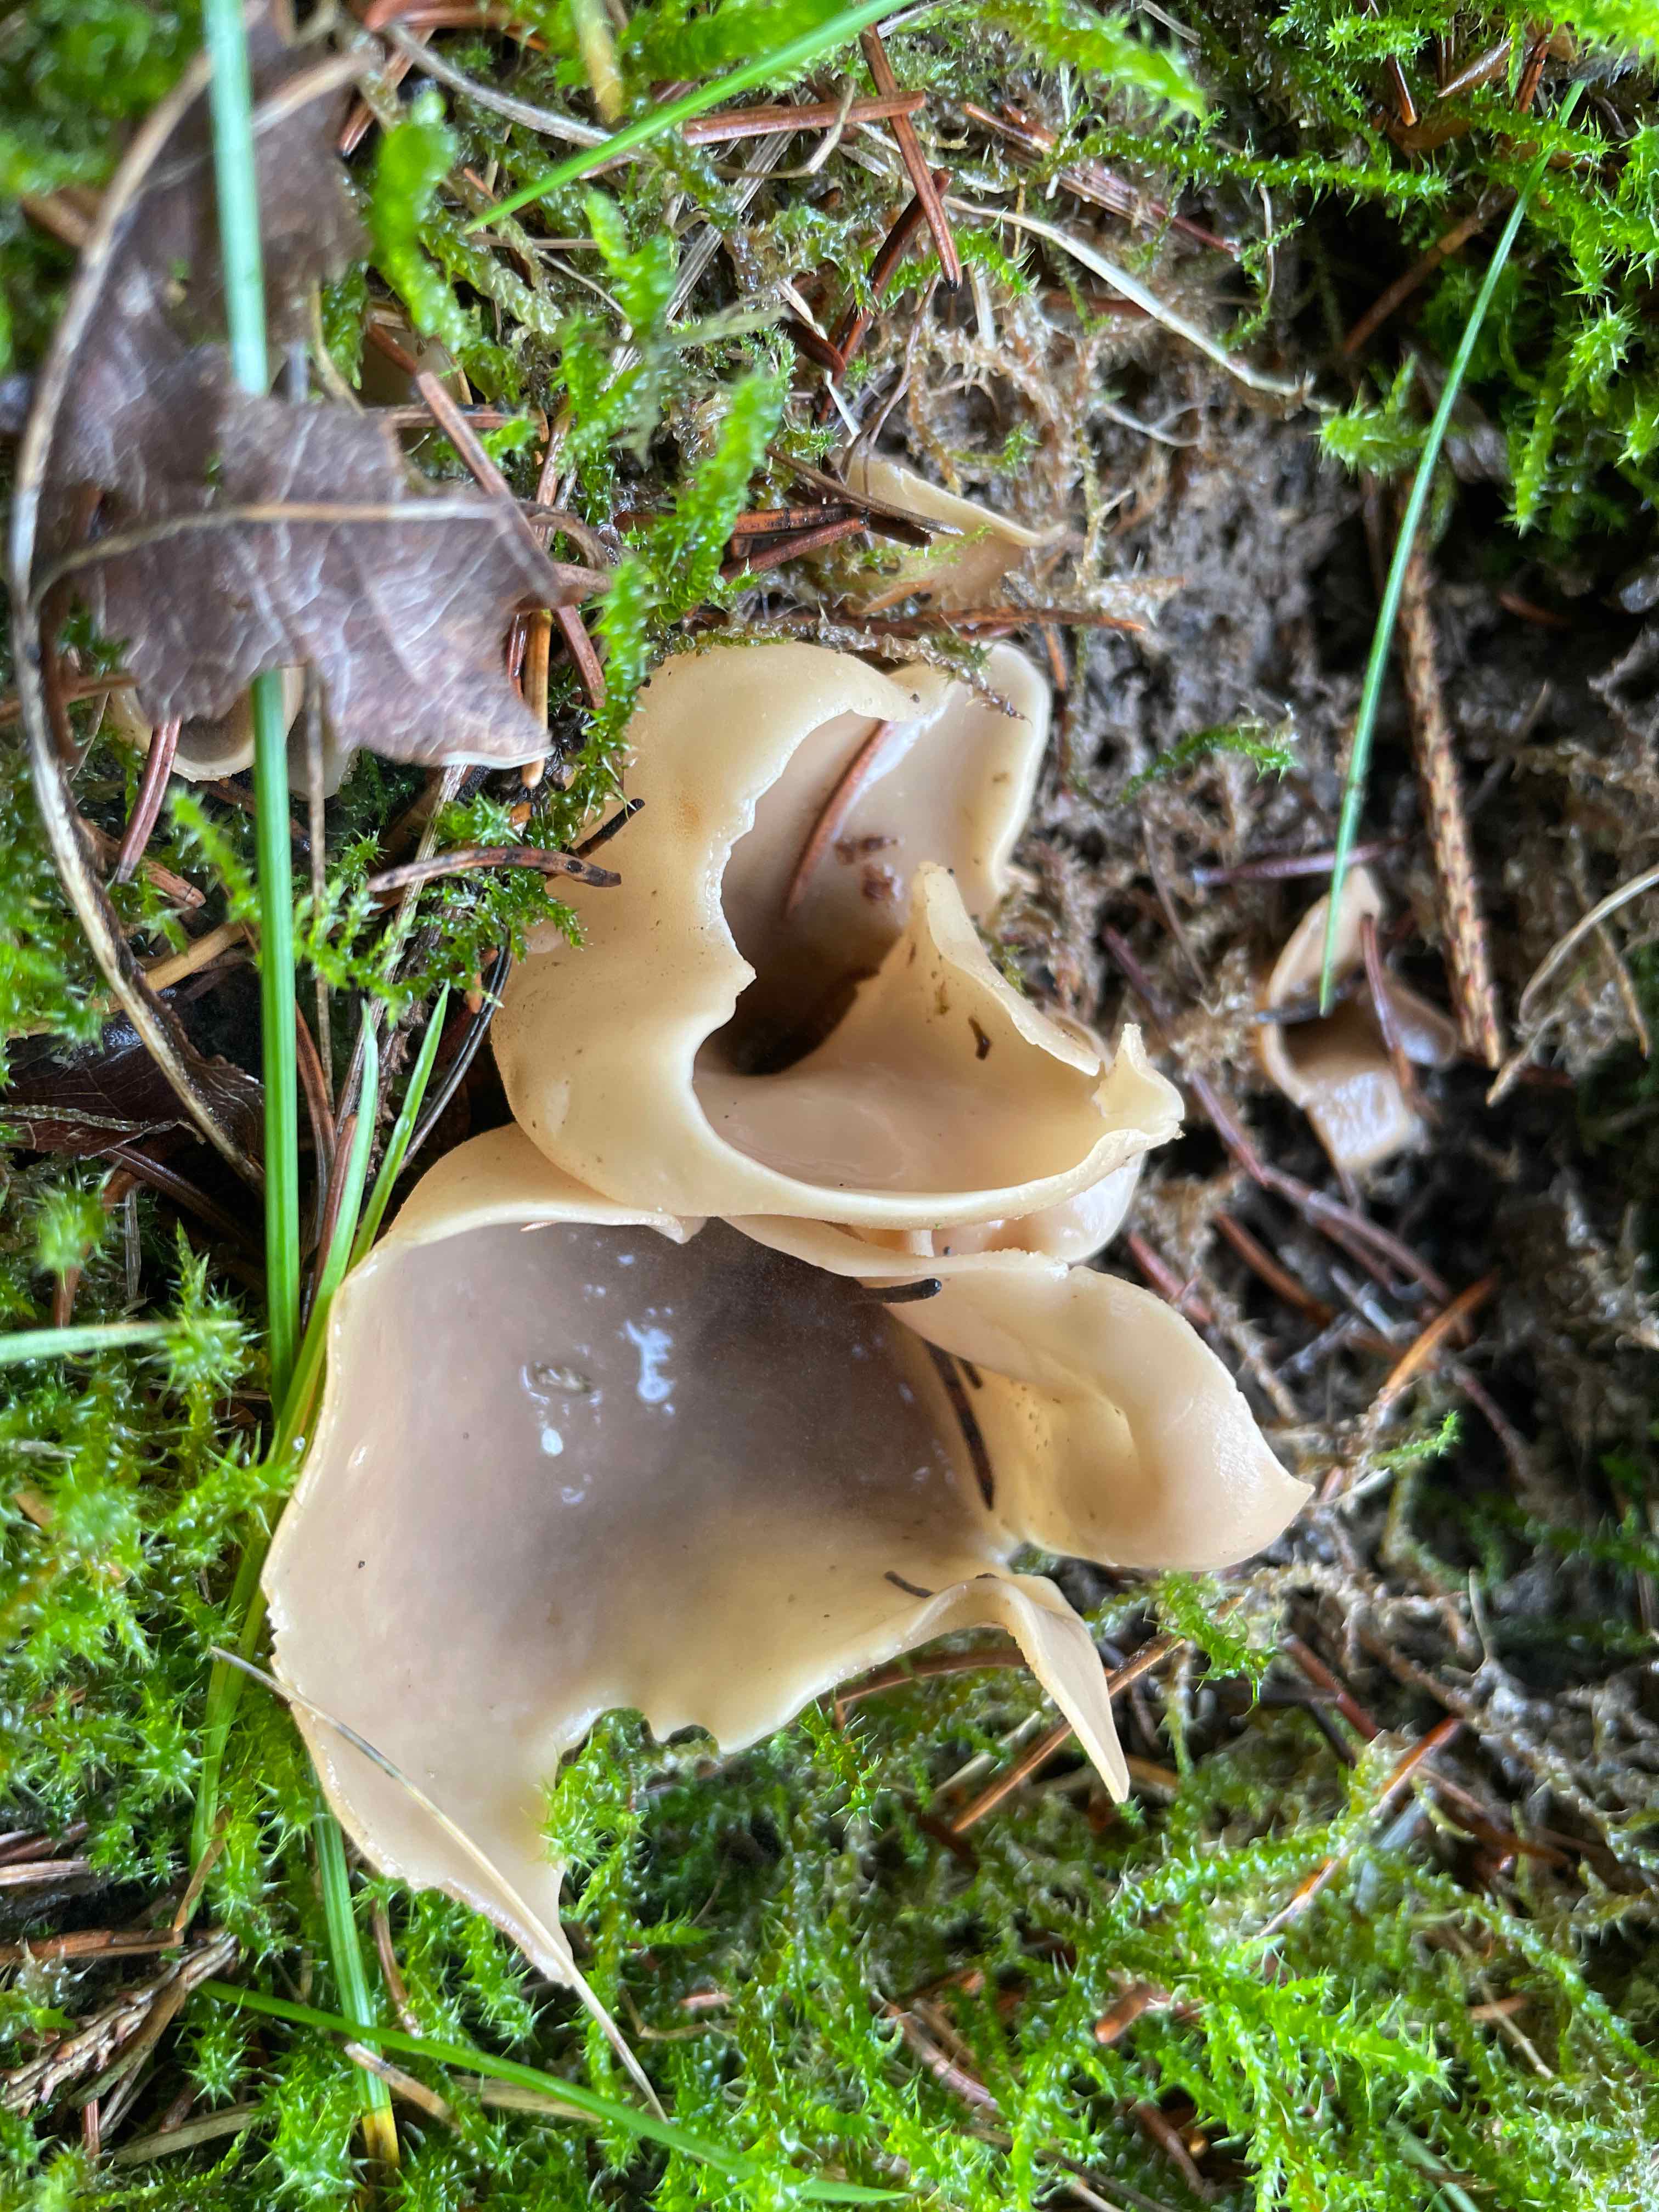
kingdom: Fungi
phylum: Ascomycota
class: Pezizomycetes
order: Pezizales
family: Otideaceae
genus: Otidea
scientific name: Otidea alutacea
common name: læder-ørebæger
